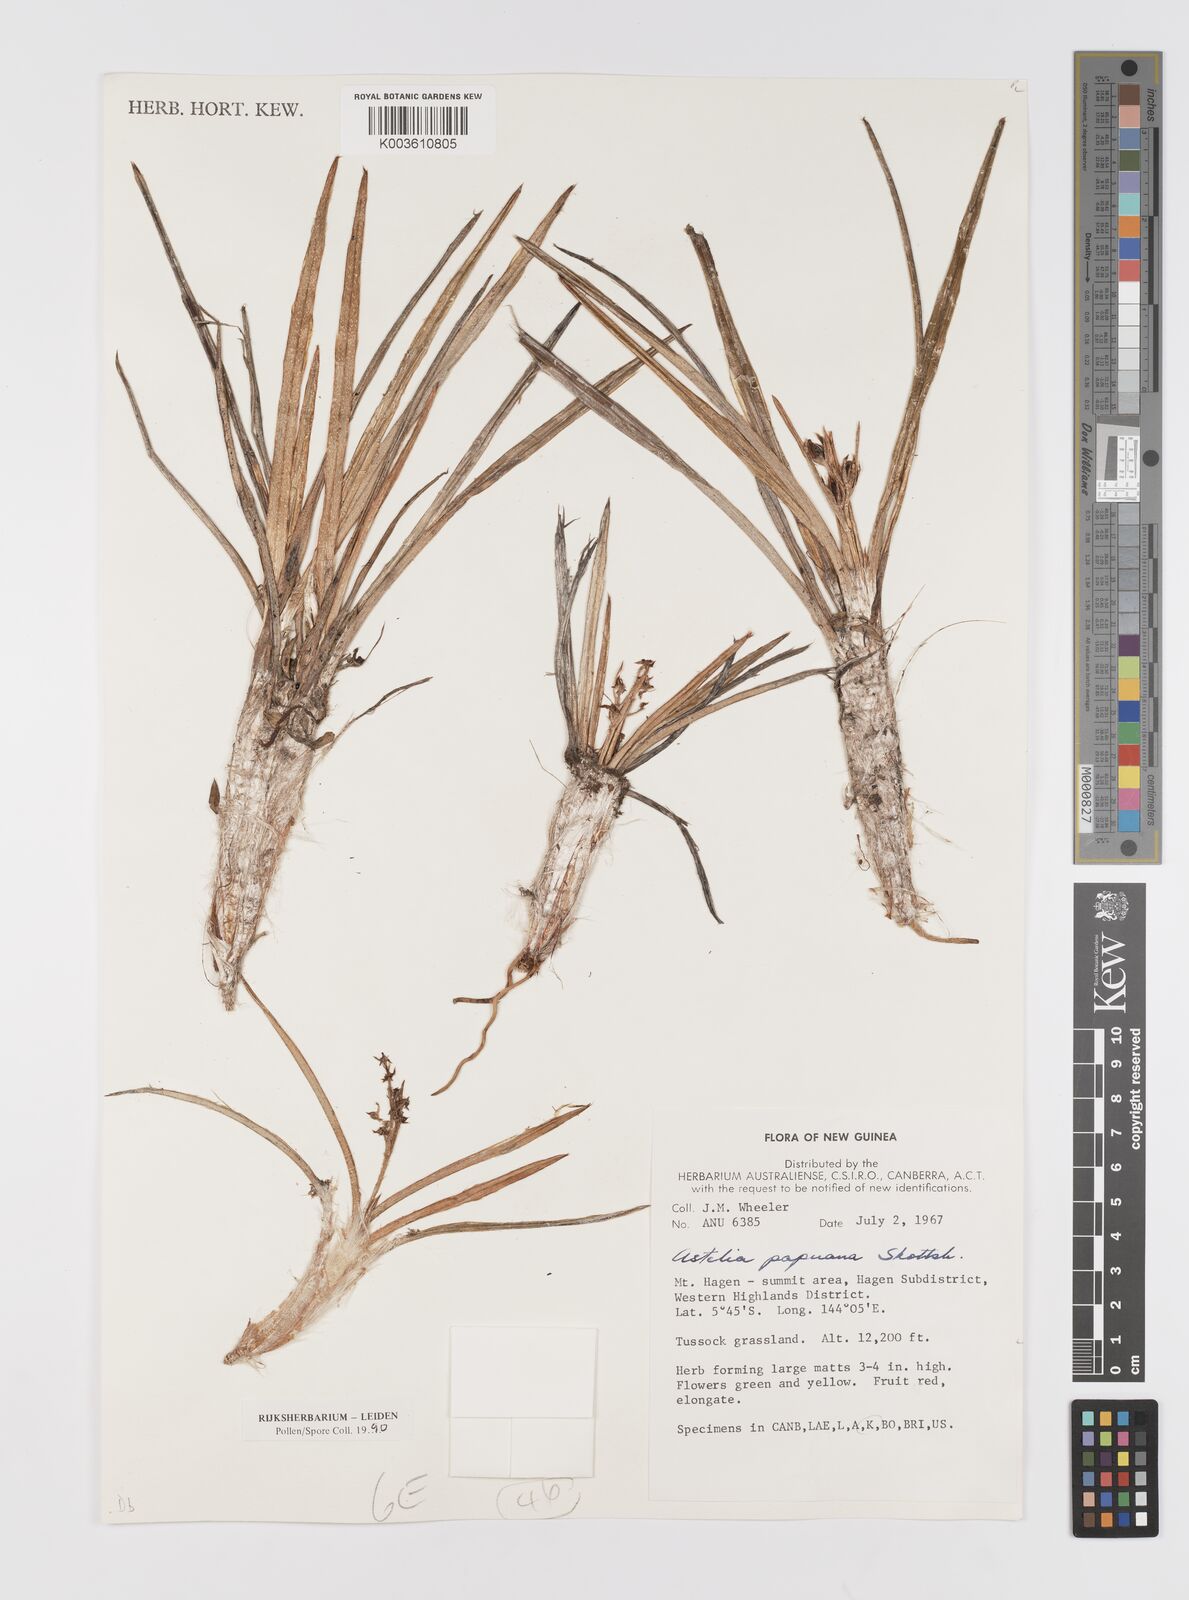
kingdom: Plantae
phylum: Tracheophyta
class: Liliopsida
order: Asparagales
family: Asteliaceae
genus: Astelia
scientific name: Astelia papuana
